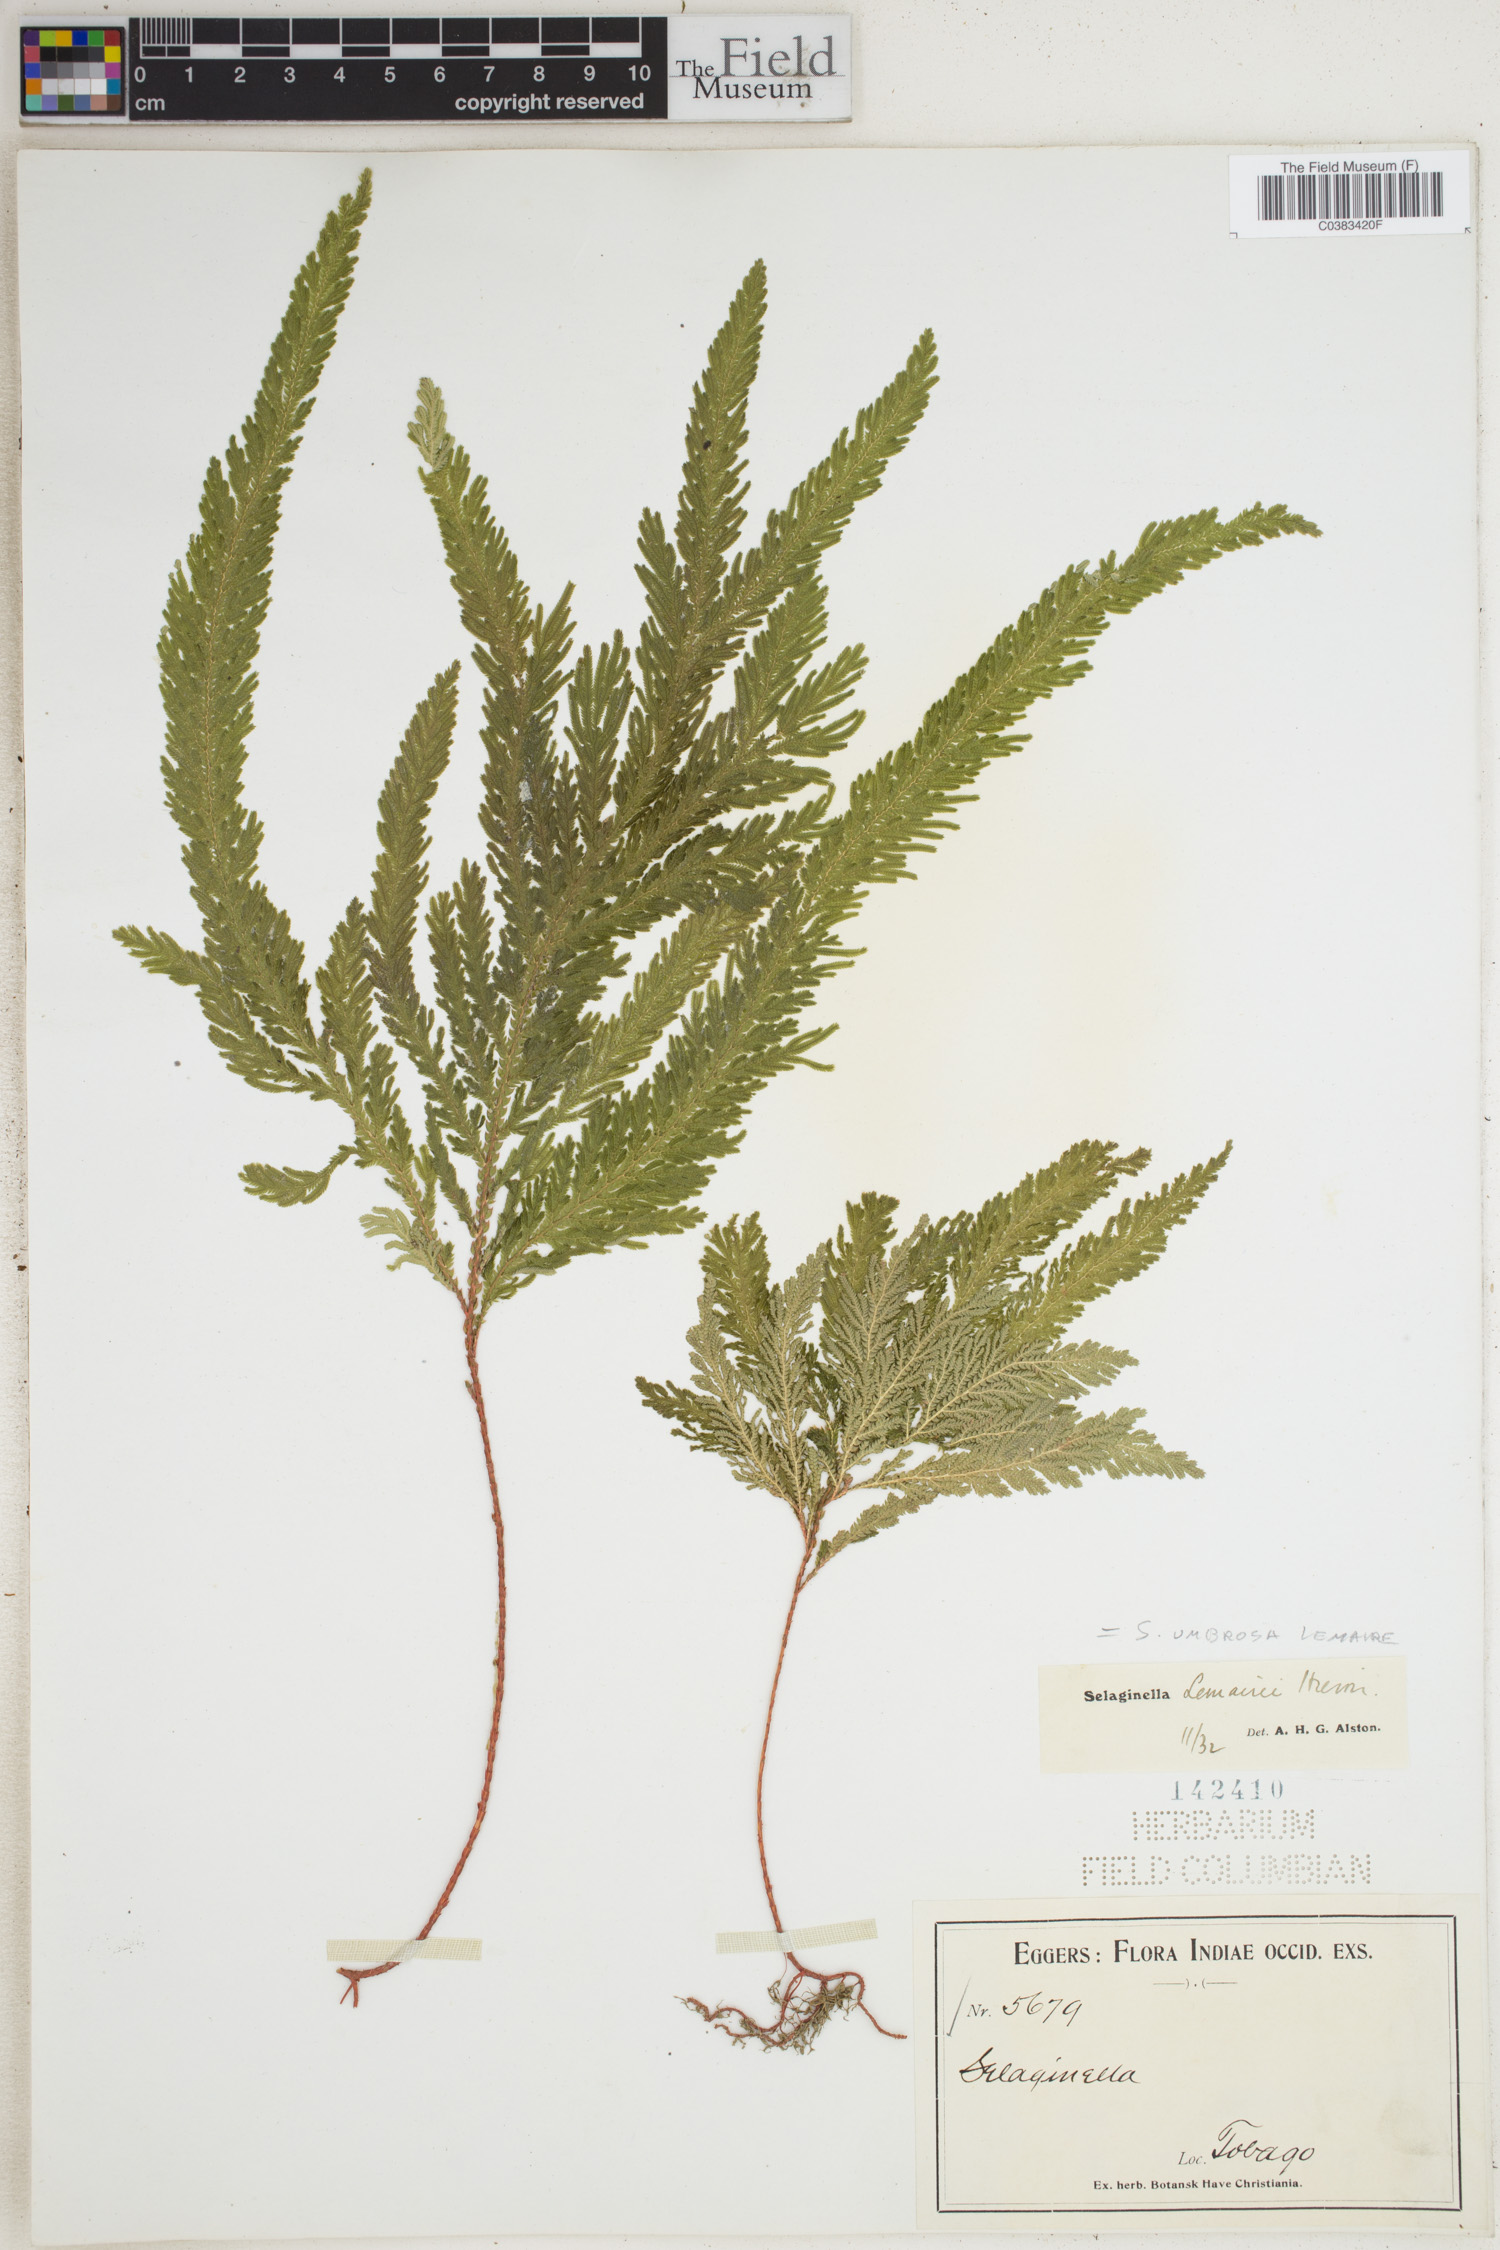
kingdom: Plantae
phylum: Tracheophyta
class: Lycopodiopsida
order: Selaginellales
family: Selaginellaceae
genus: Selaginella
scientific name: Selaginella umbrosa
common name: Spikemoss
